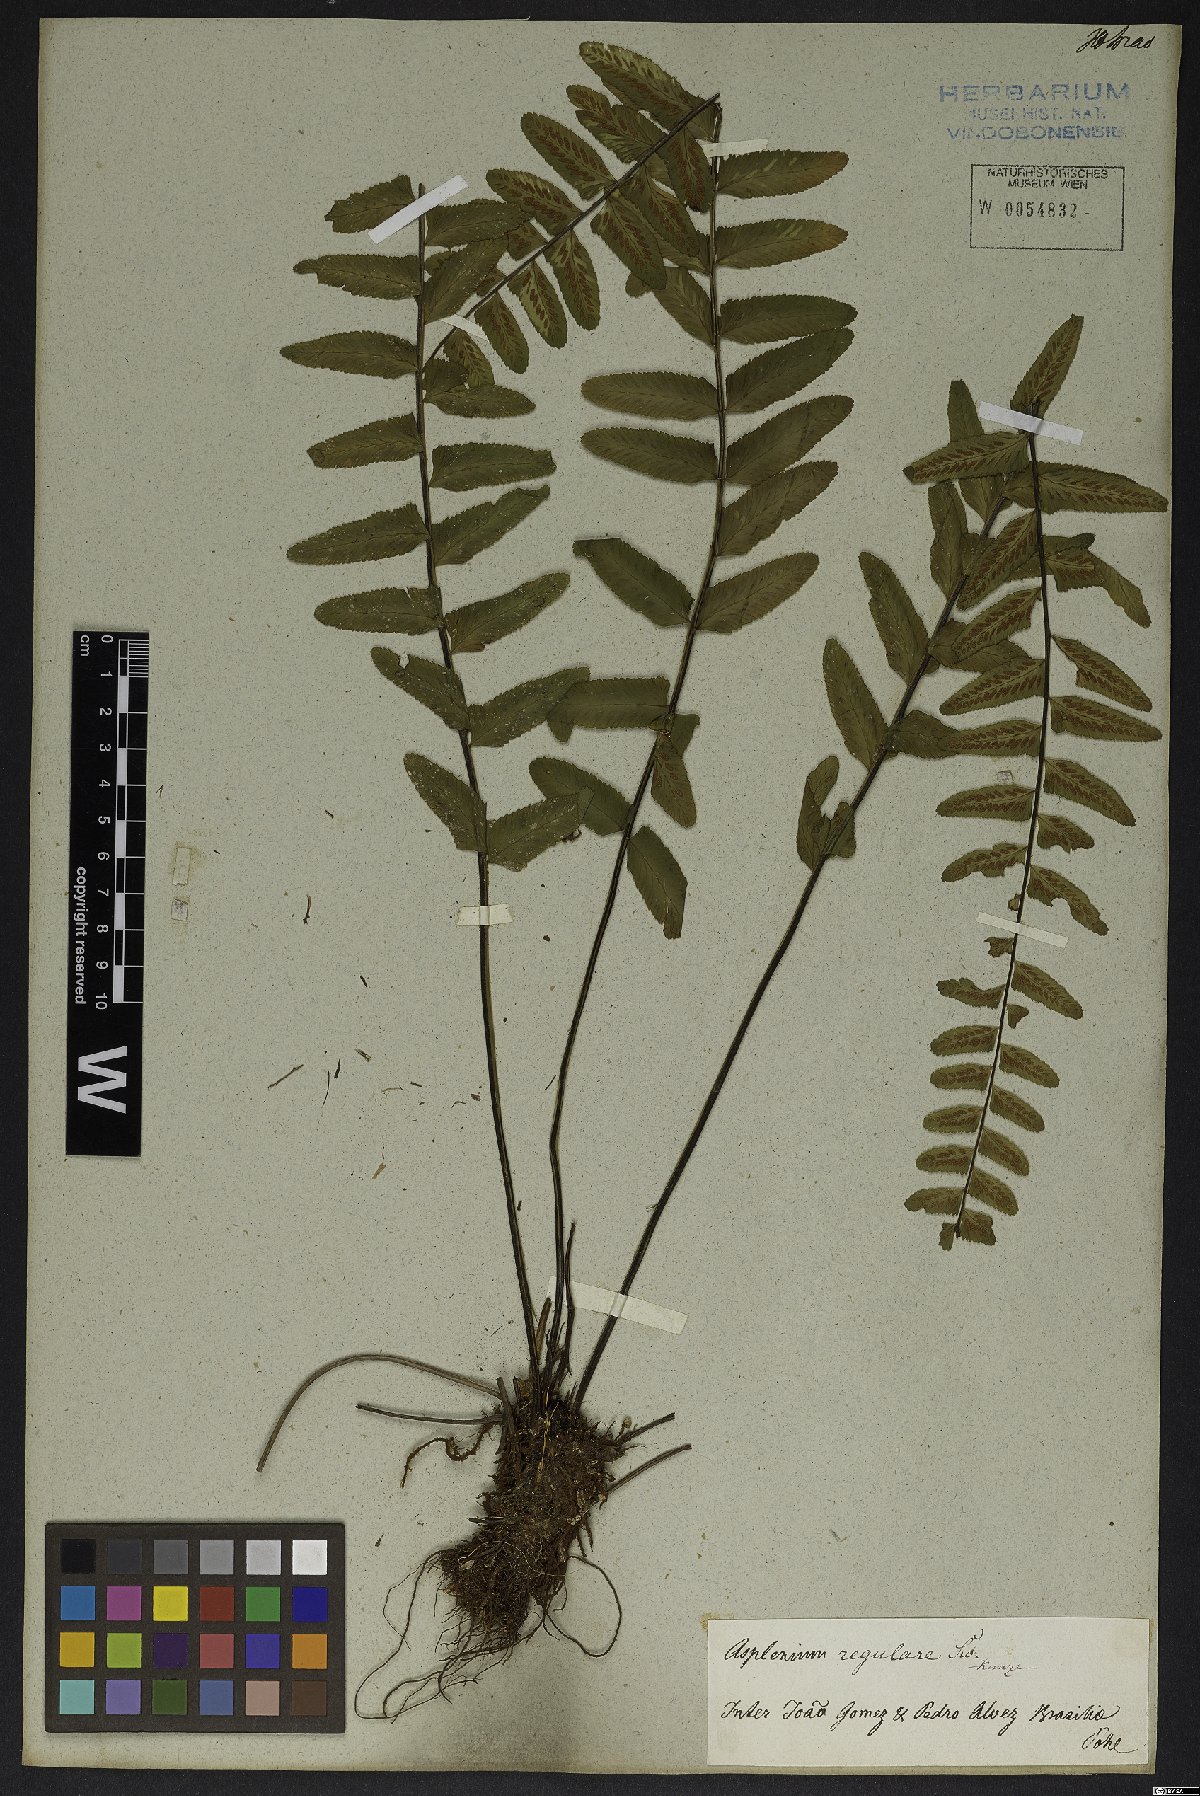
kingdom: Plantae
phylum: Tracheophyta
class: Polypodiopsida
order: Polypodiales
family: Aspleniaceae
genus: Asplenium
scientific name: Asplenium regulare
